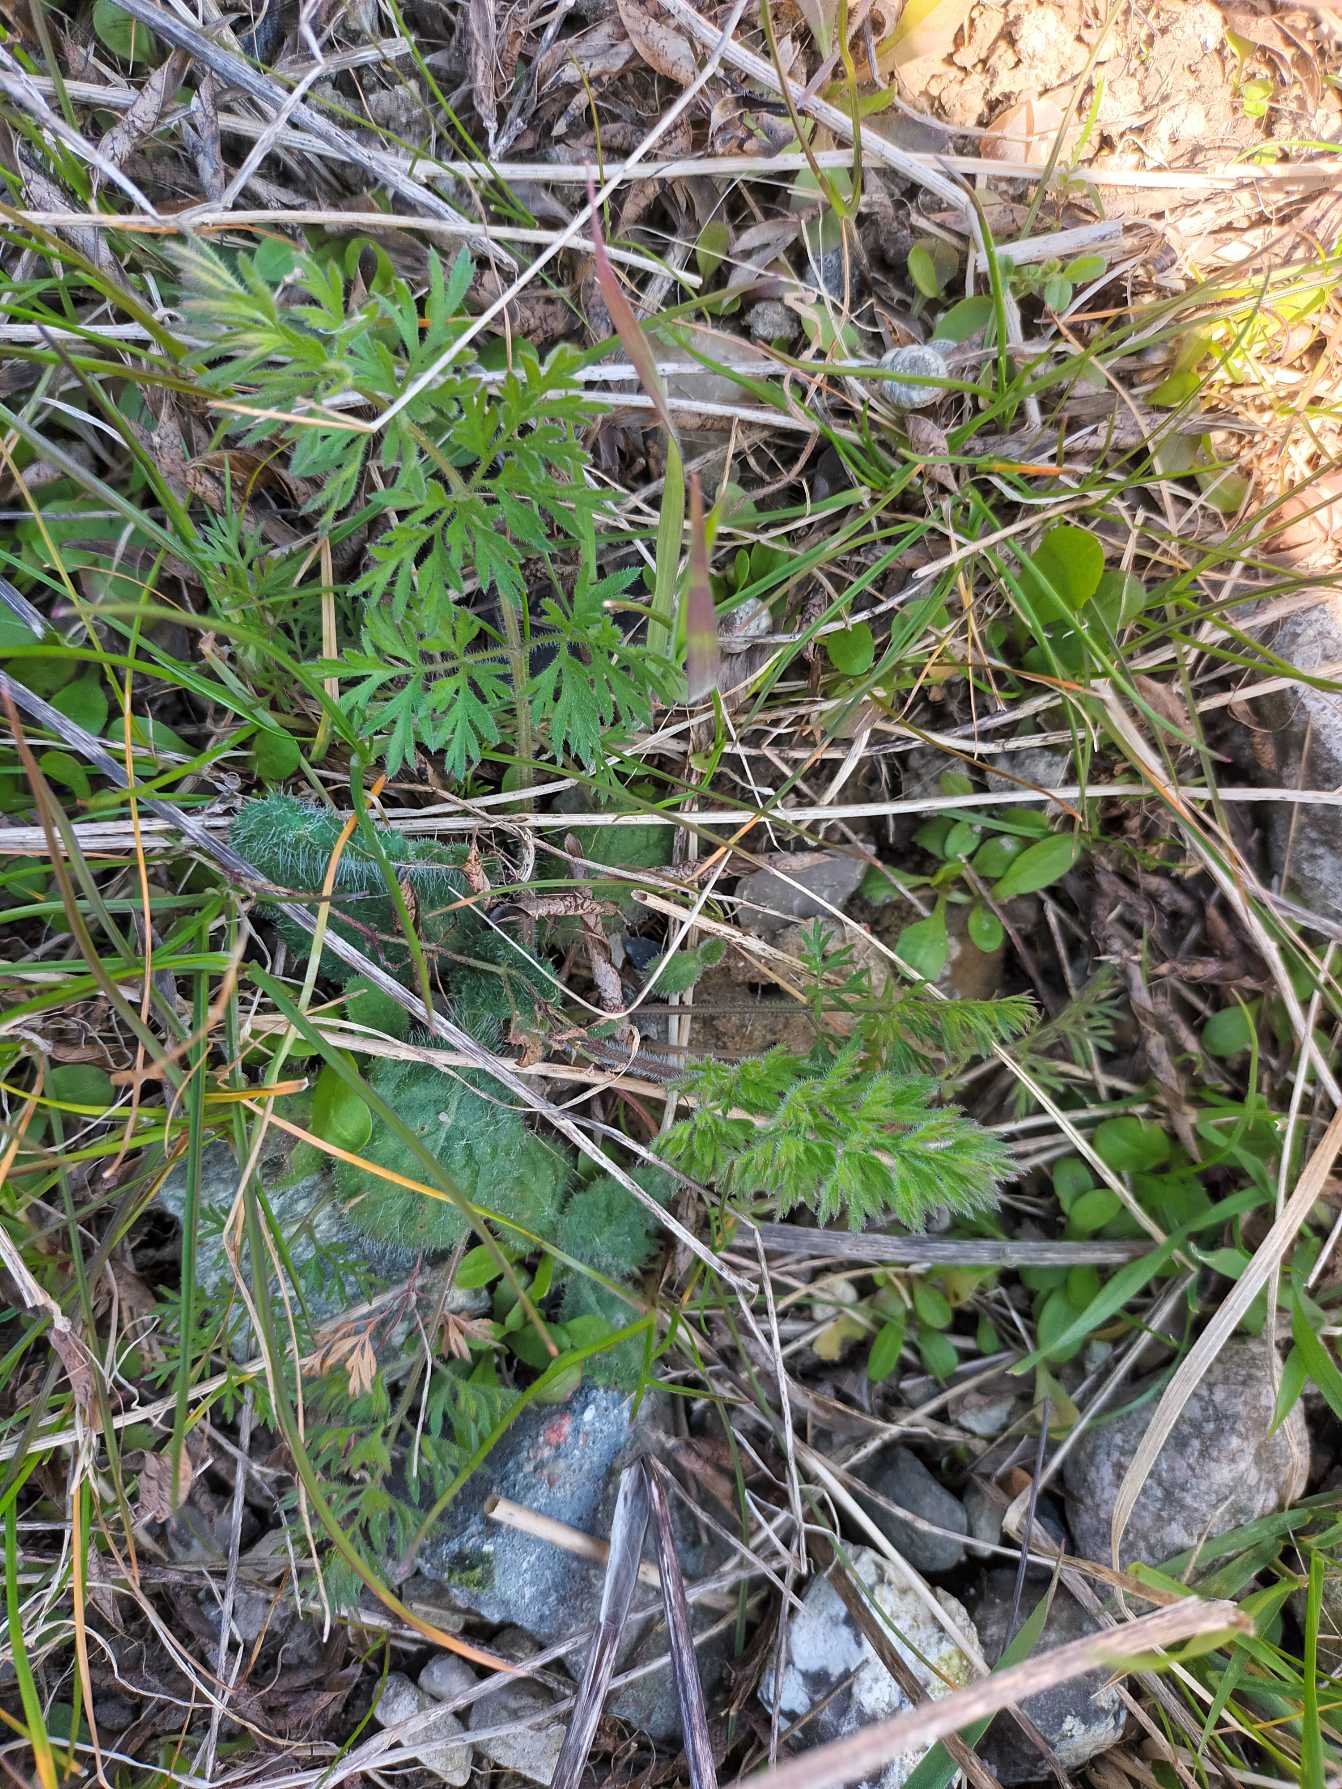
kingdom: Plantae
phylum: Tracheophyta
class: Magnoliopsida
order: Apiales
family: Apiaceae
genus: Daucus
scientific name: Daucus carota
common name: Gulerod
